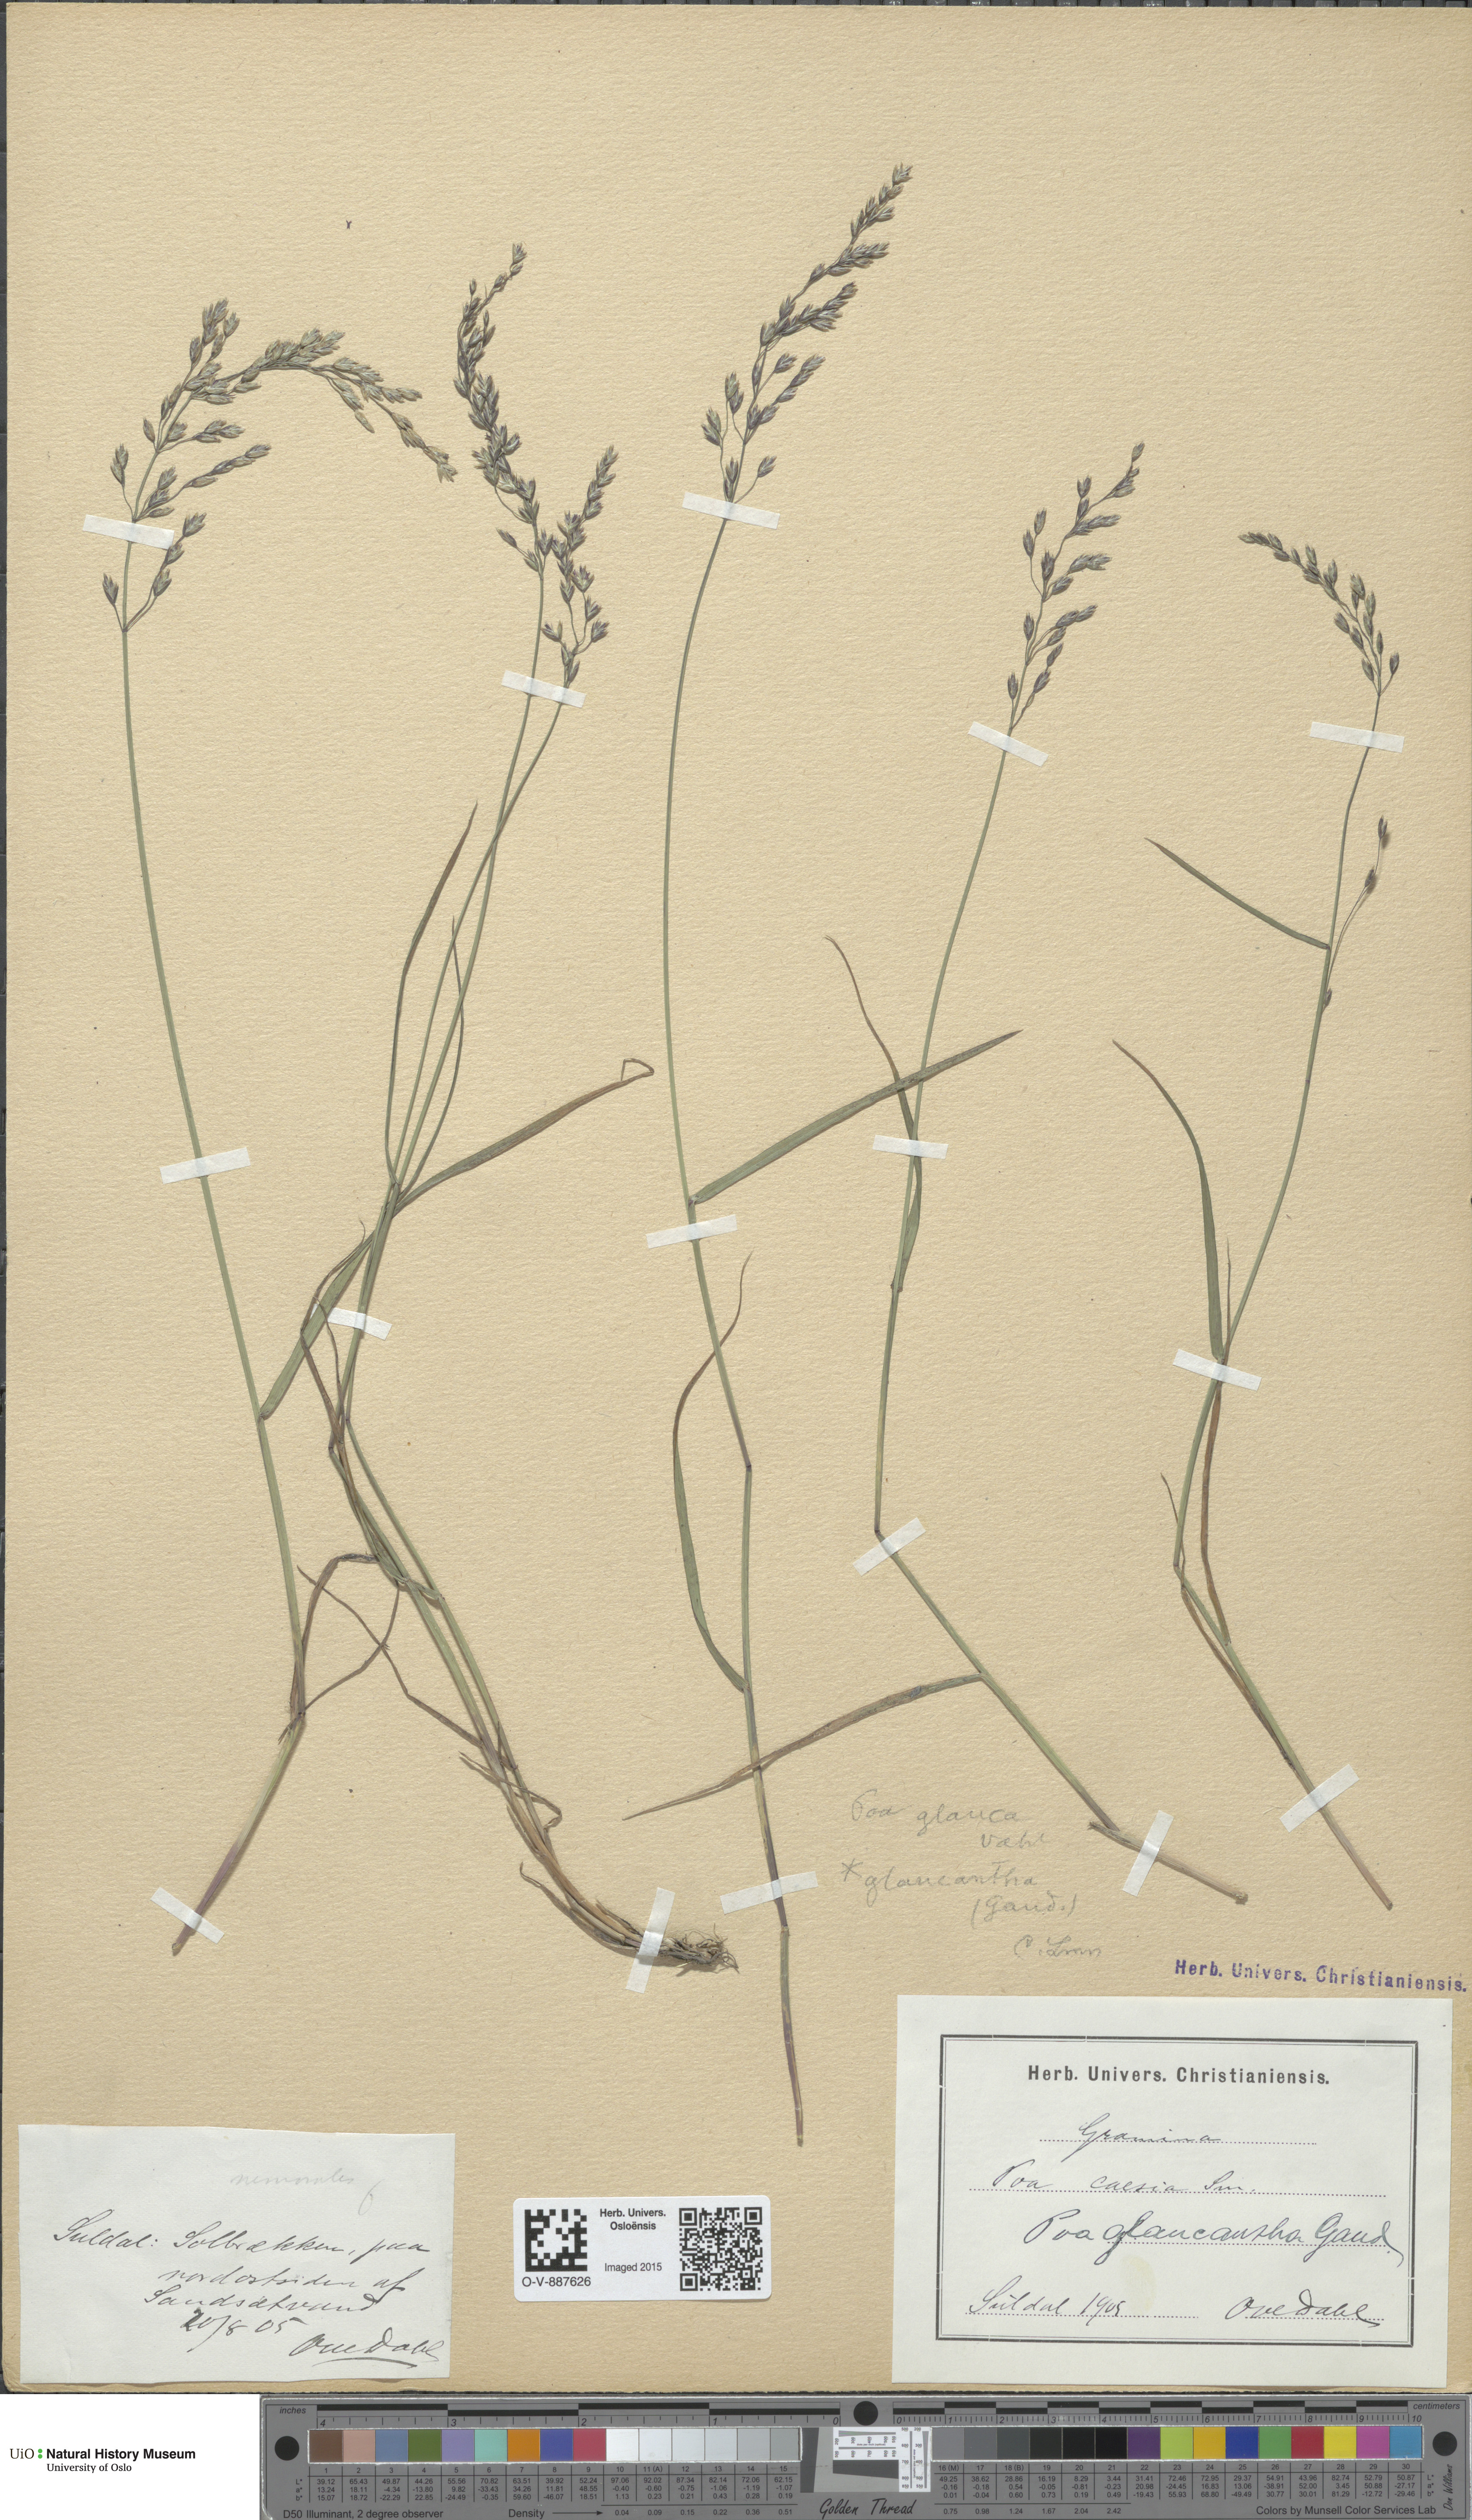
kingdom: Plantae
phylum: Tracheophyta
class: Liliopsida
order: Poales
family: Poaceae
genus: Poa
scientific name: Poa nemoralis
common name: Wood bluegrass
